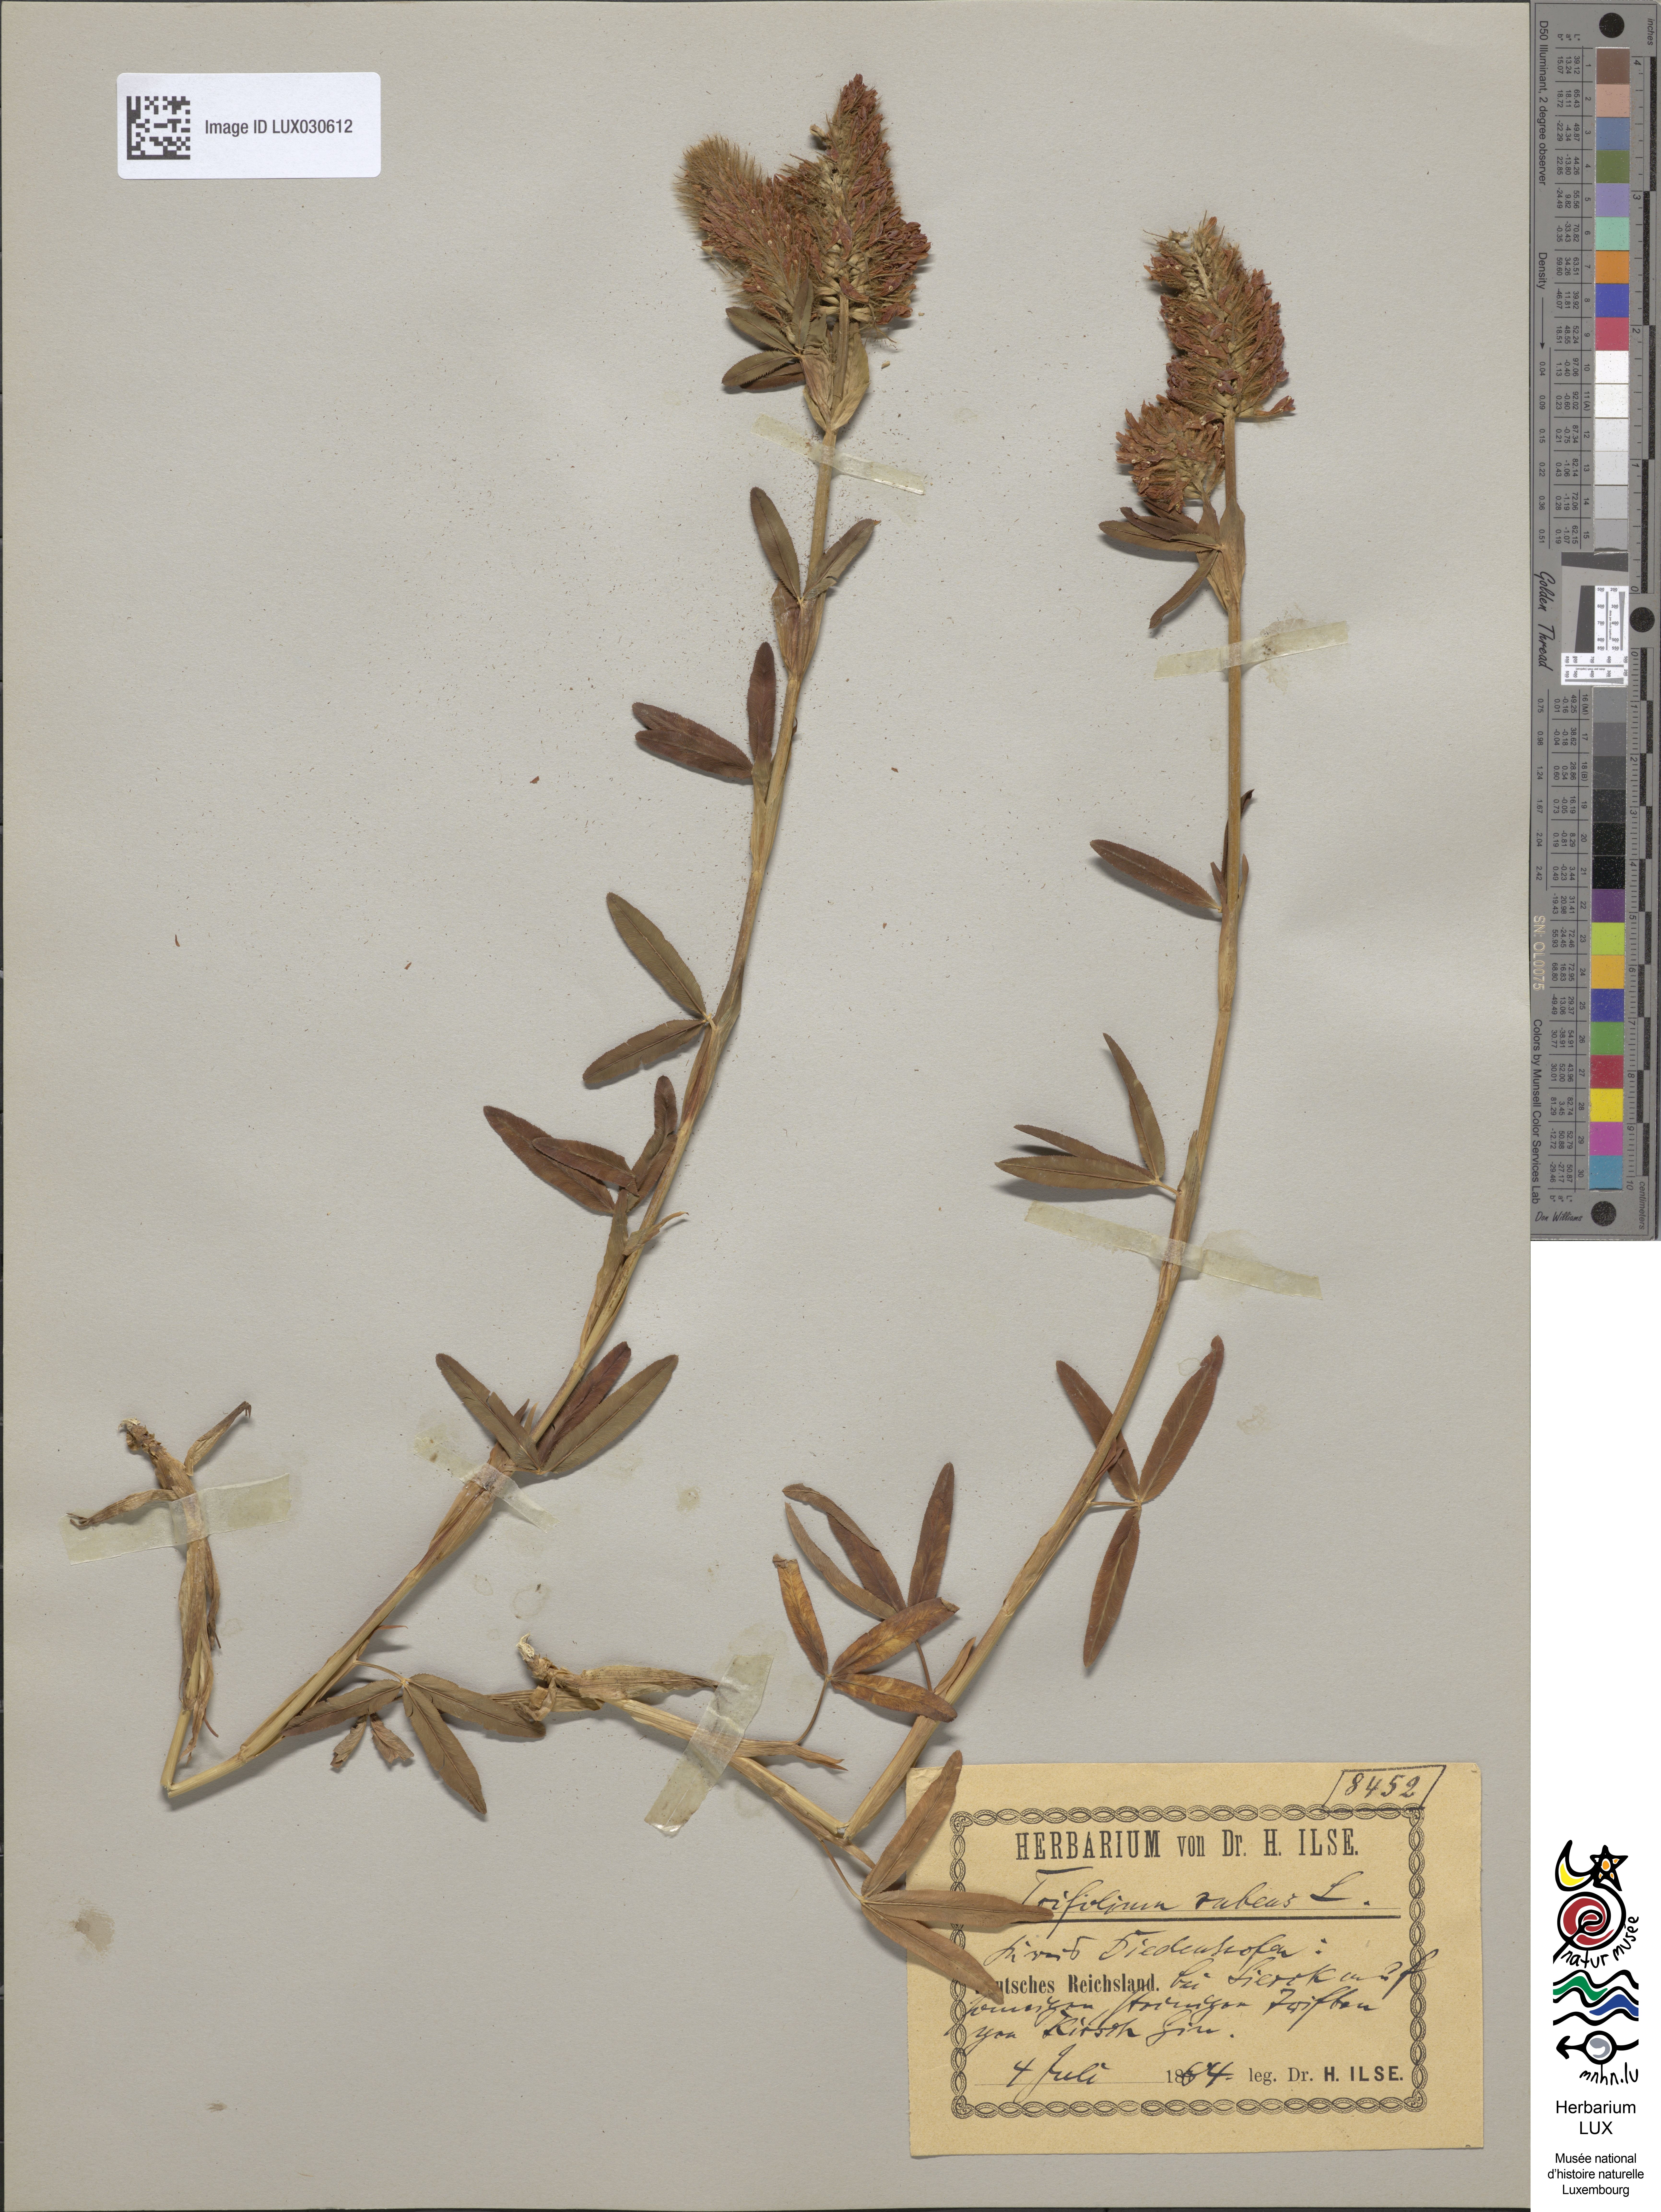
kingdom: Plantae
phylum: Tracheophyta
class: Magnoliopsida
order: Fabales
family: Fabaceae
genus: Trifolium
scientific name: Trifolium rubens
